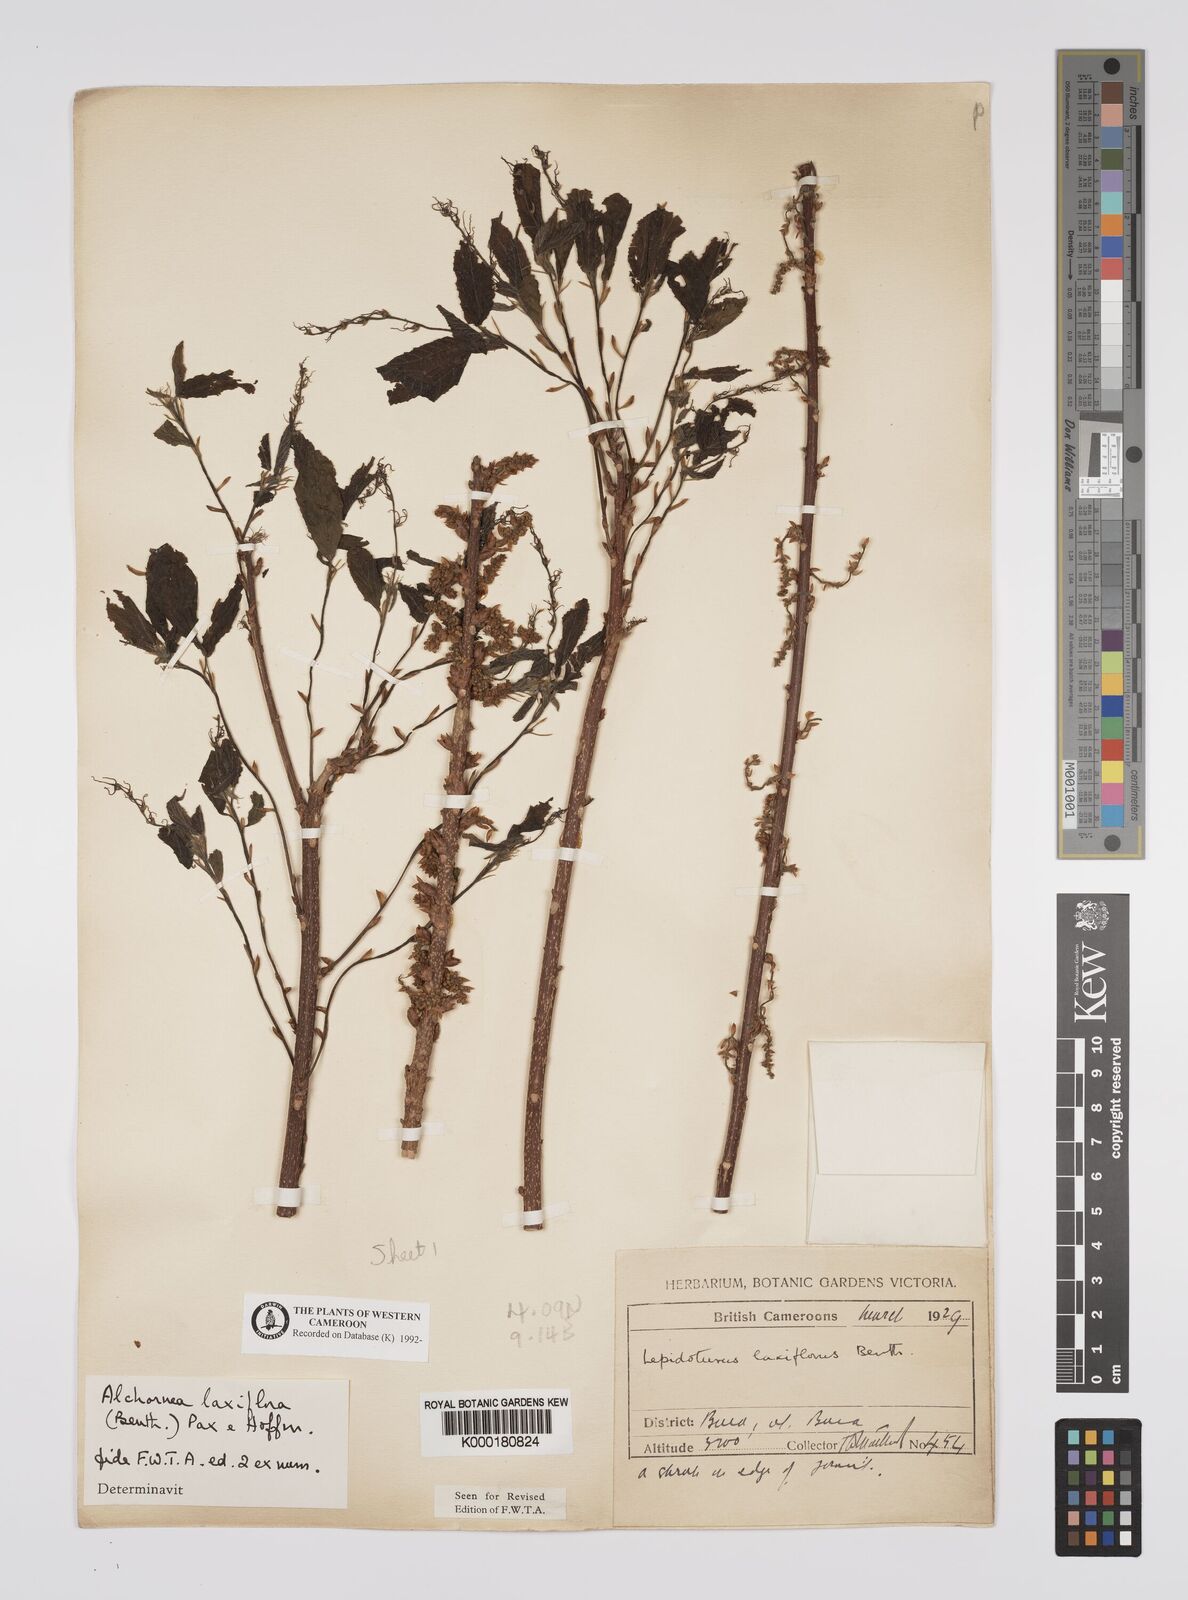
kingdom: Plantae
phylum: Tracheophyta
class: Magnoliopsida
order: Malpighiales
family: Euphorbiaceae
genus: Alchornea
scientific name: Alchornea laxiflora
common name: Lowveld bead-string
